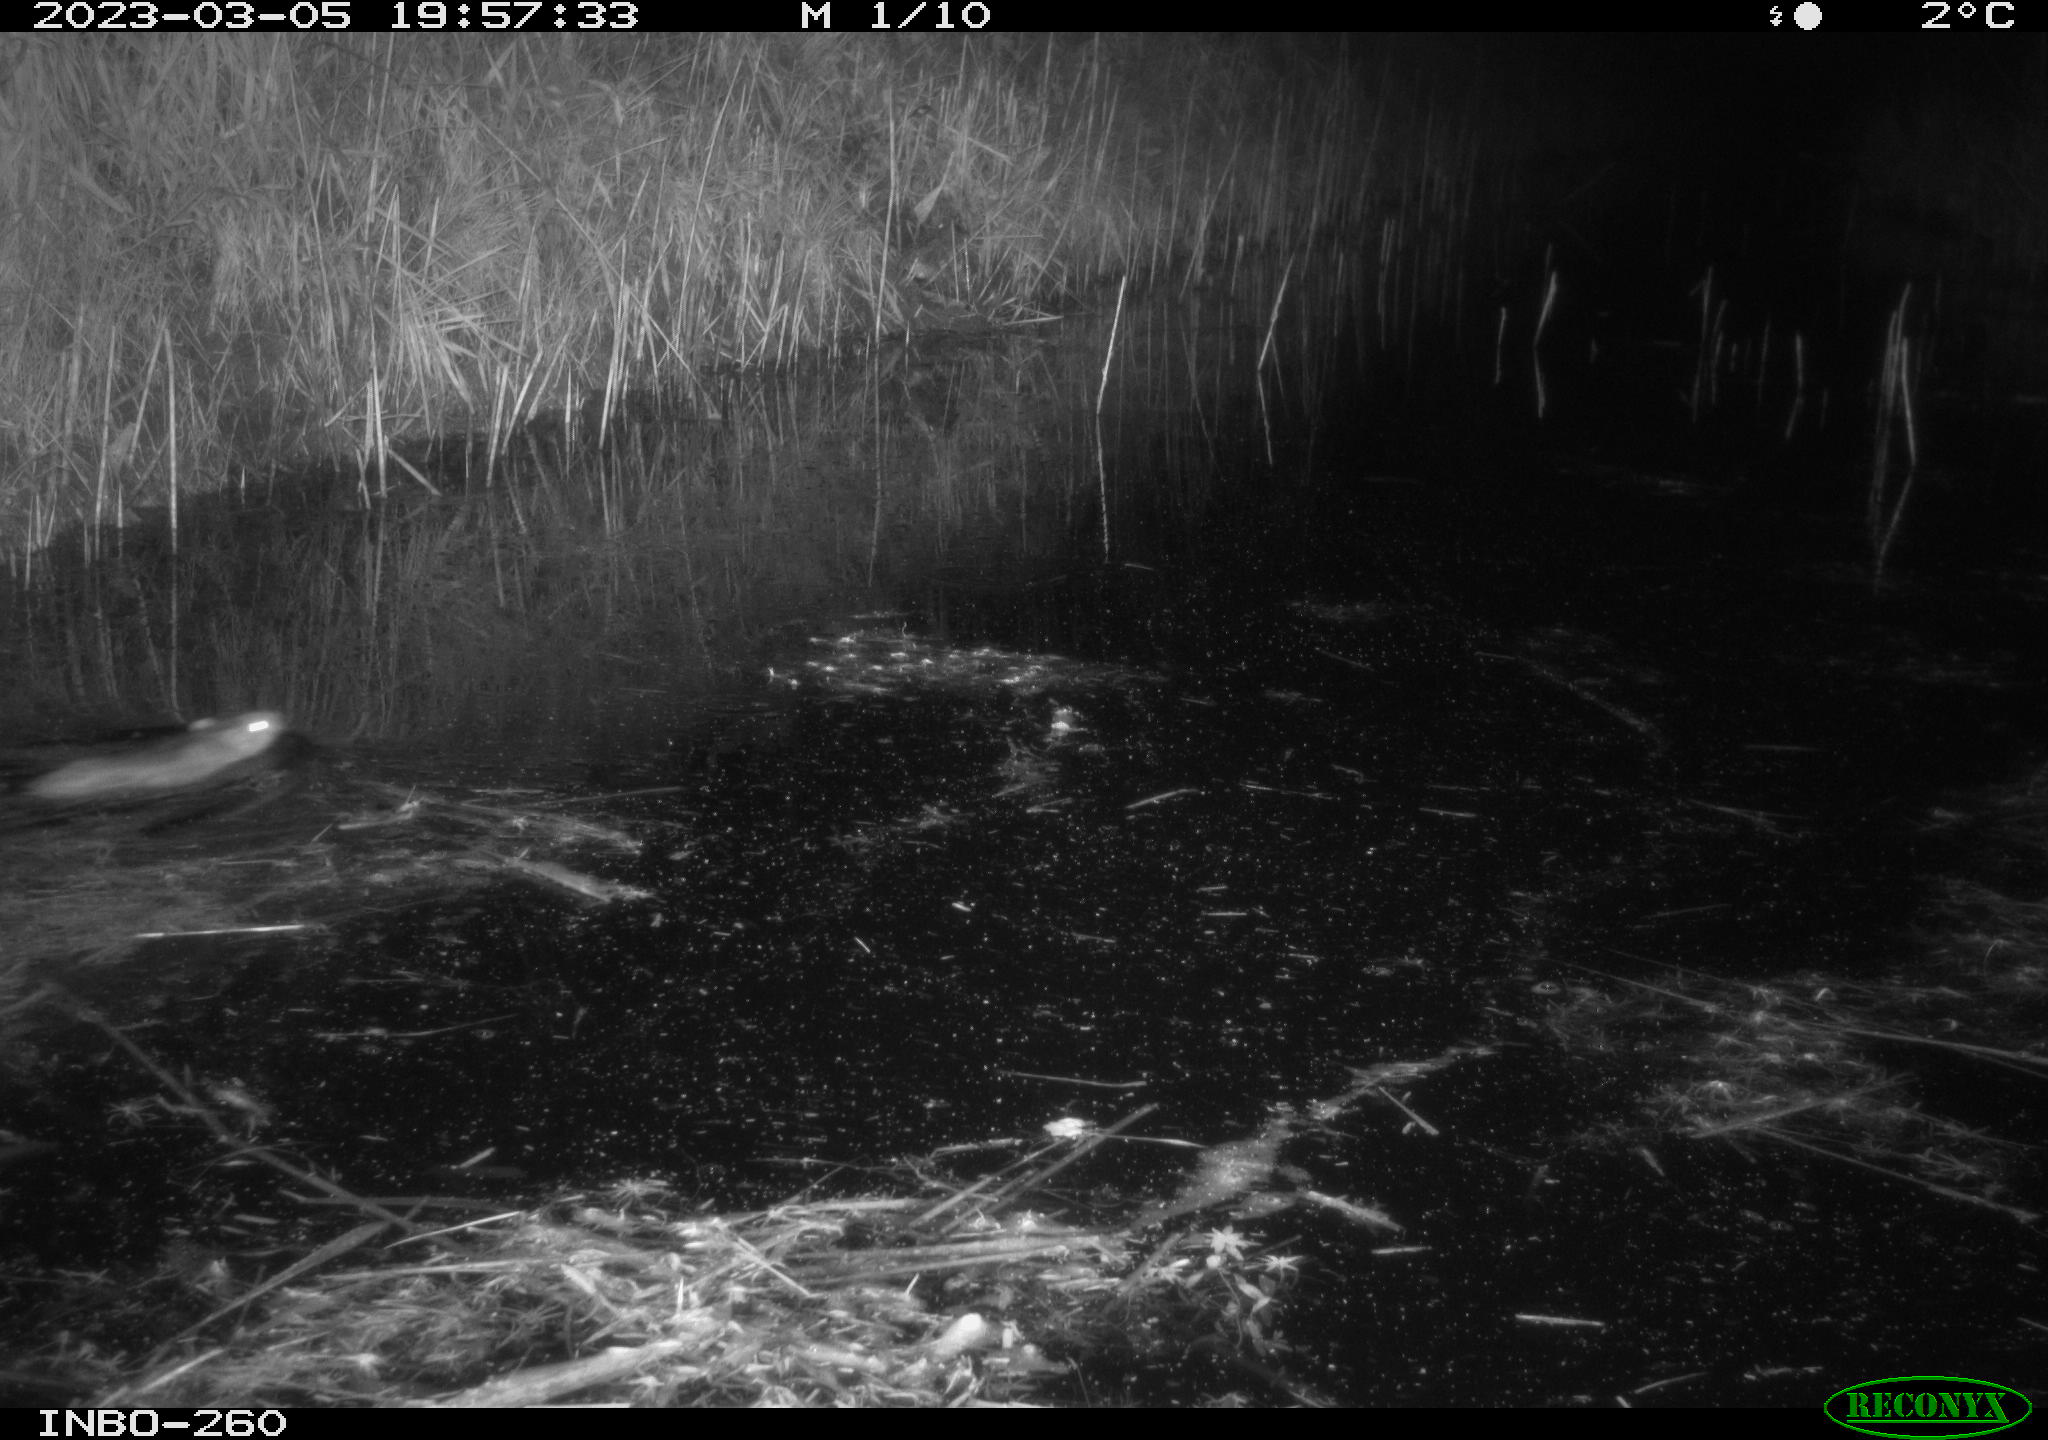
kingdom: Animalia
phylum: Chordata
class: Mammalia
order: Rodentia
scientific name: Rodentia
